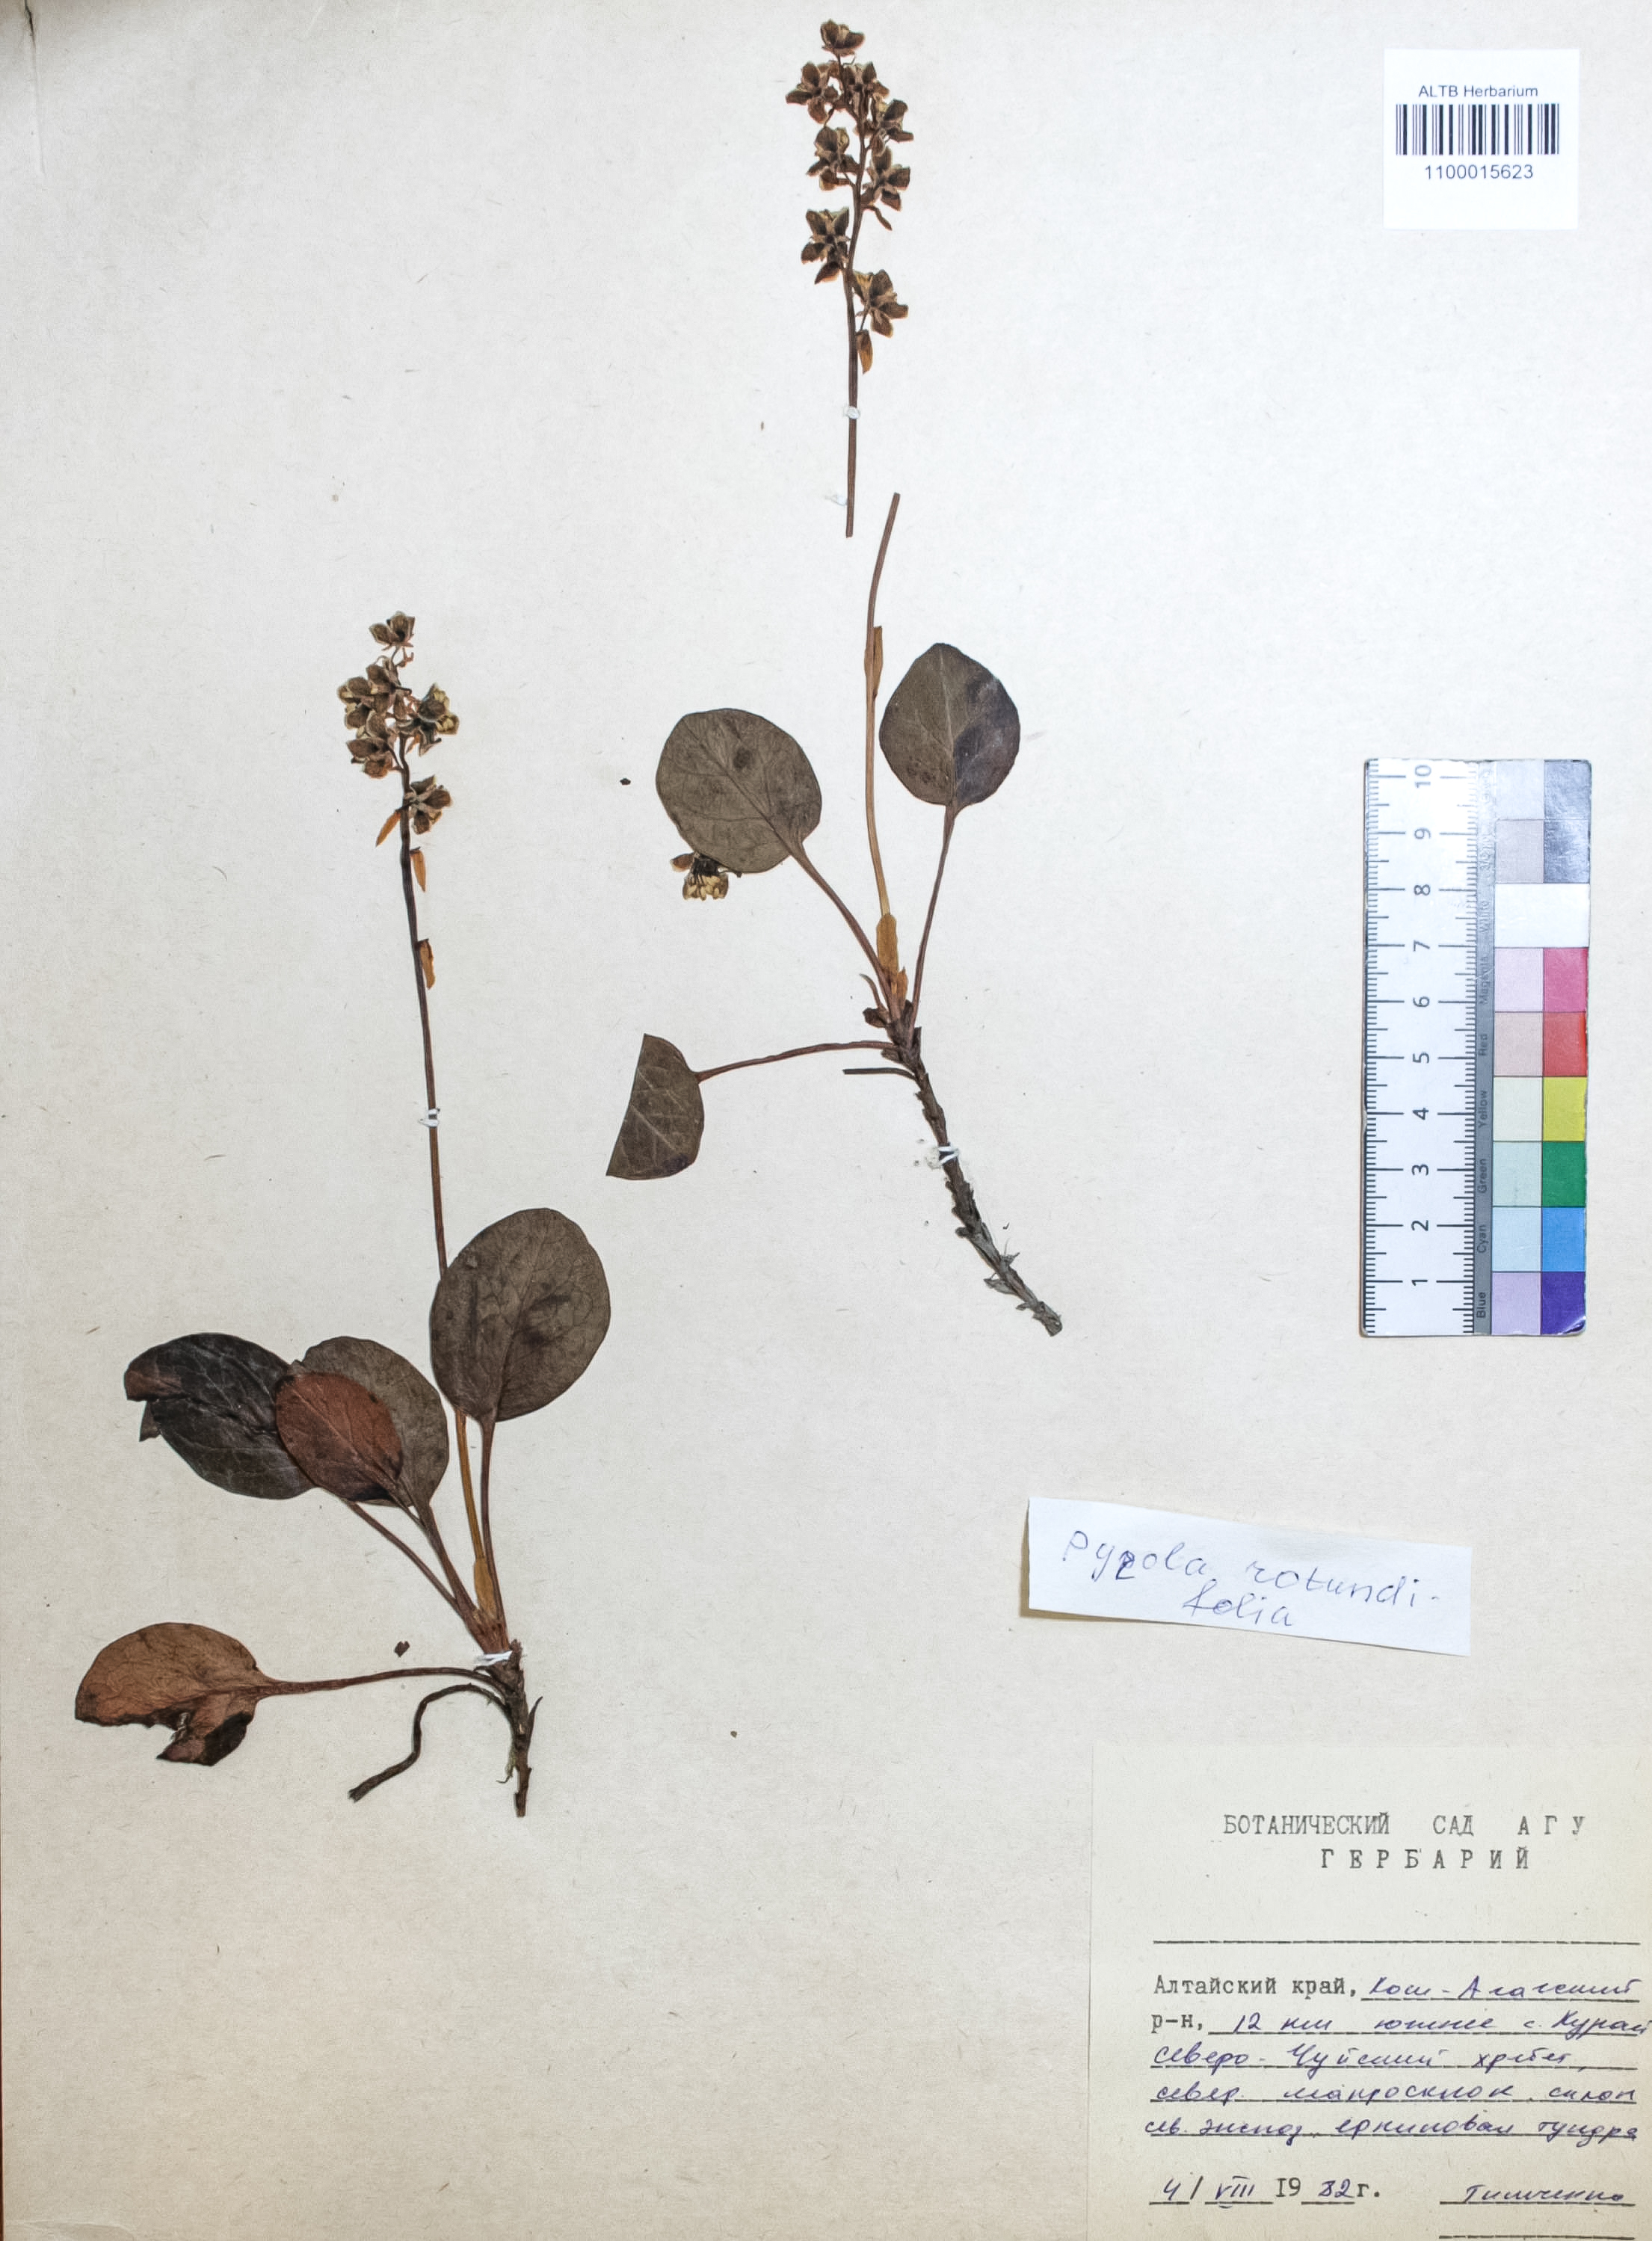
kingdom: Plantae
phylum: Tracheophyta
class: Magnoliopsida
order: Ericales
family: Ericaceae
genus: Pyrola
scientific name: Pyrola rotundifolia
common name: Round-leaved wintergreen
